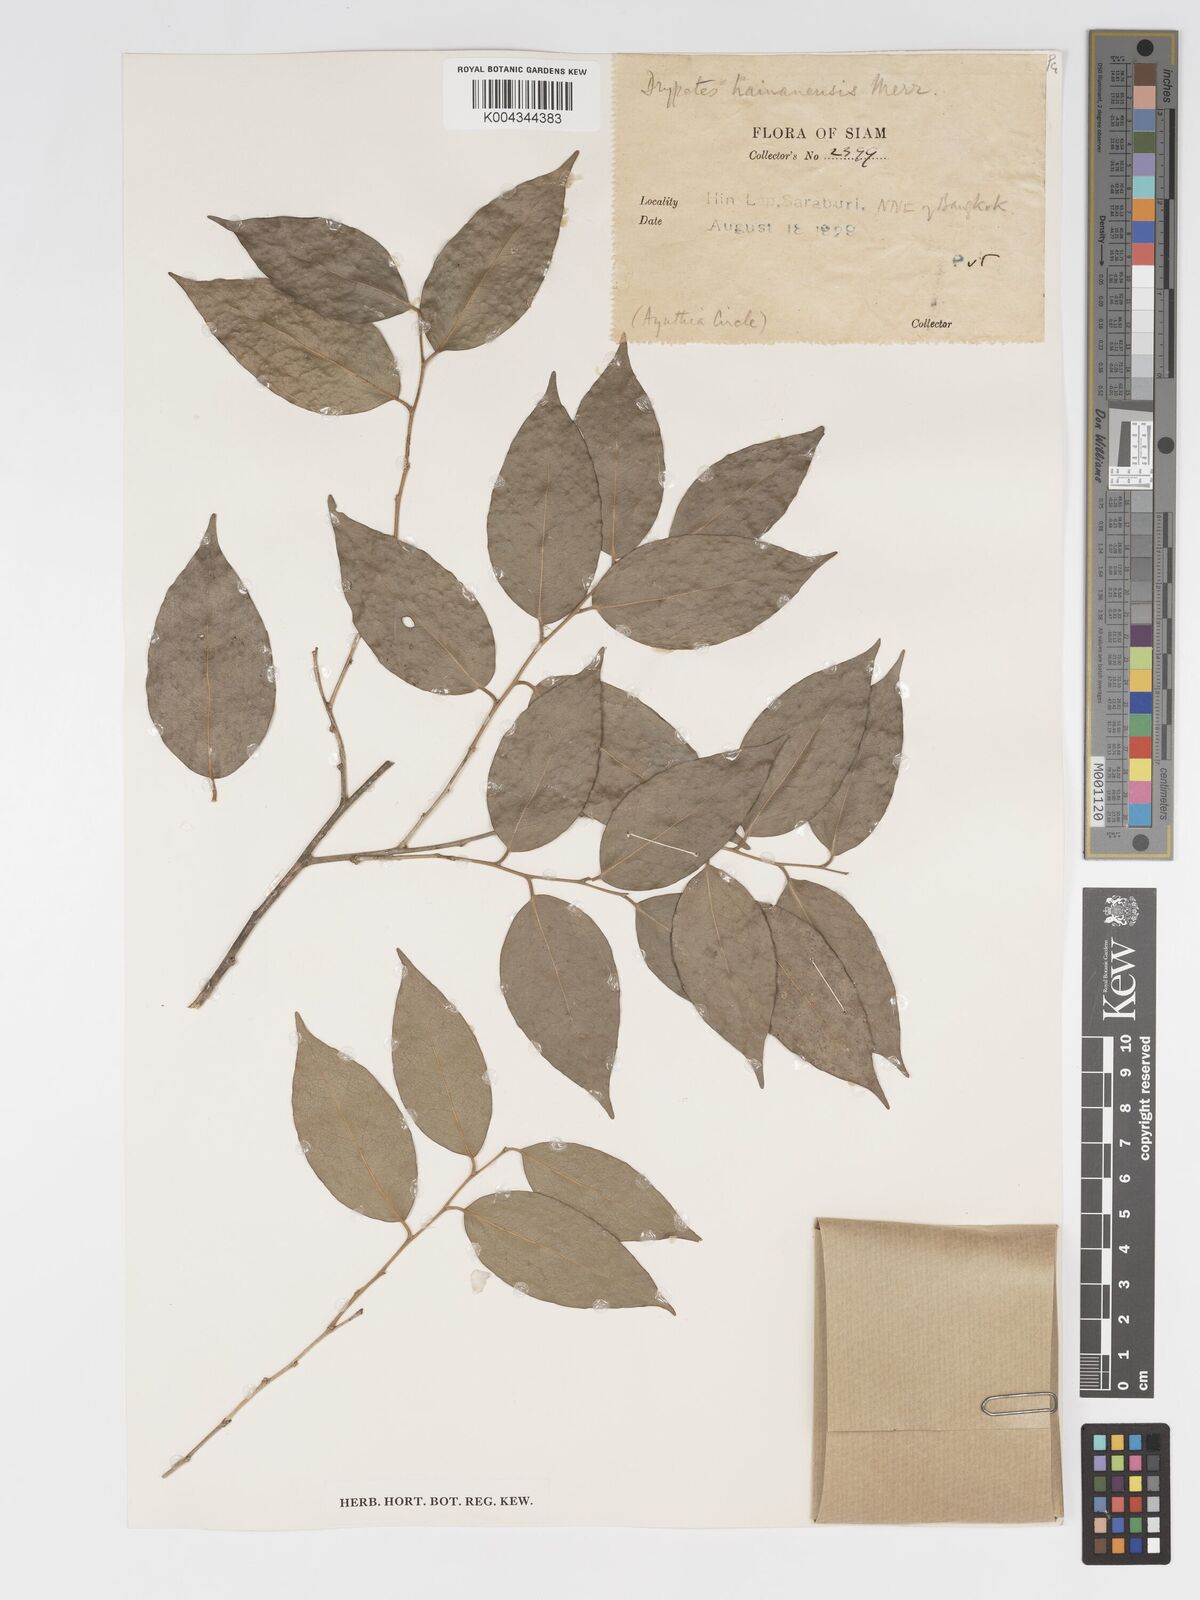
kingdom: Plantae
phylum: Tracheophyta
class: Magnoliopsida
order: Malpighiales
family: Putranjivaceae
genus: Drypetes
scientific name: Drypetes hainanensis
